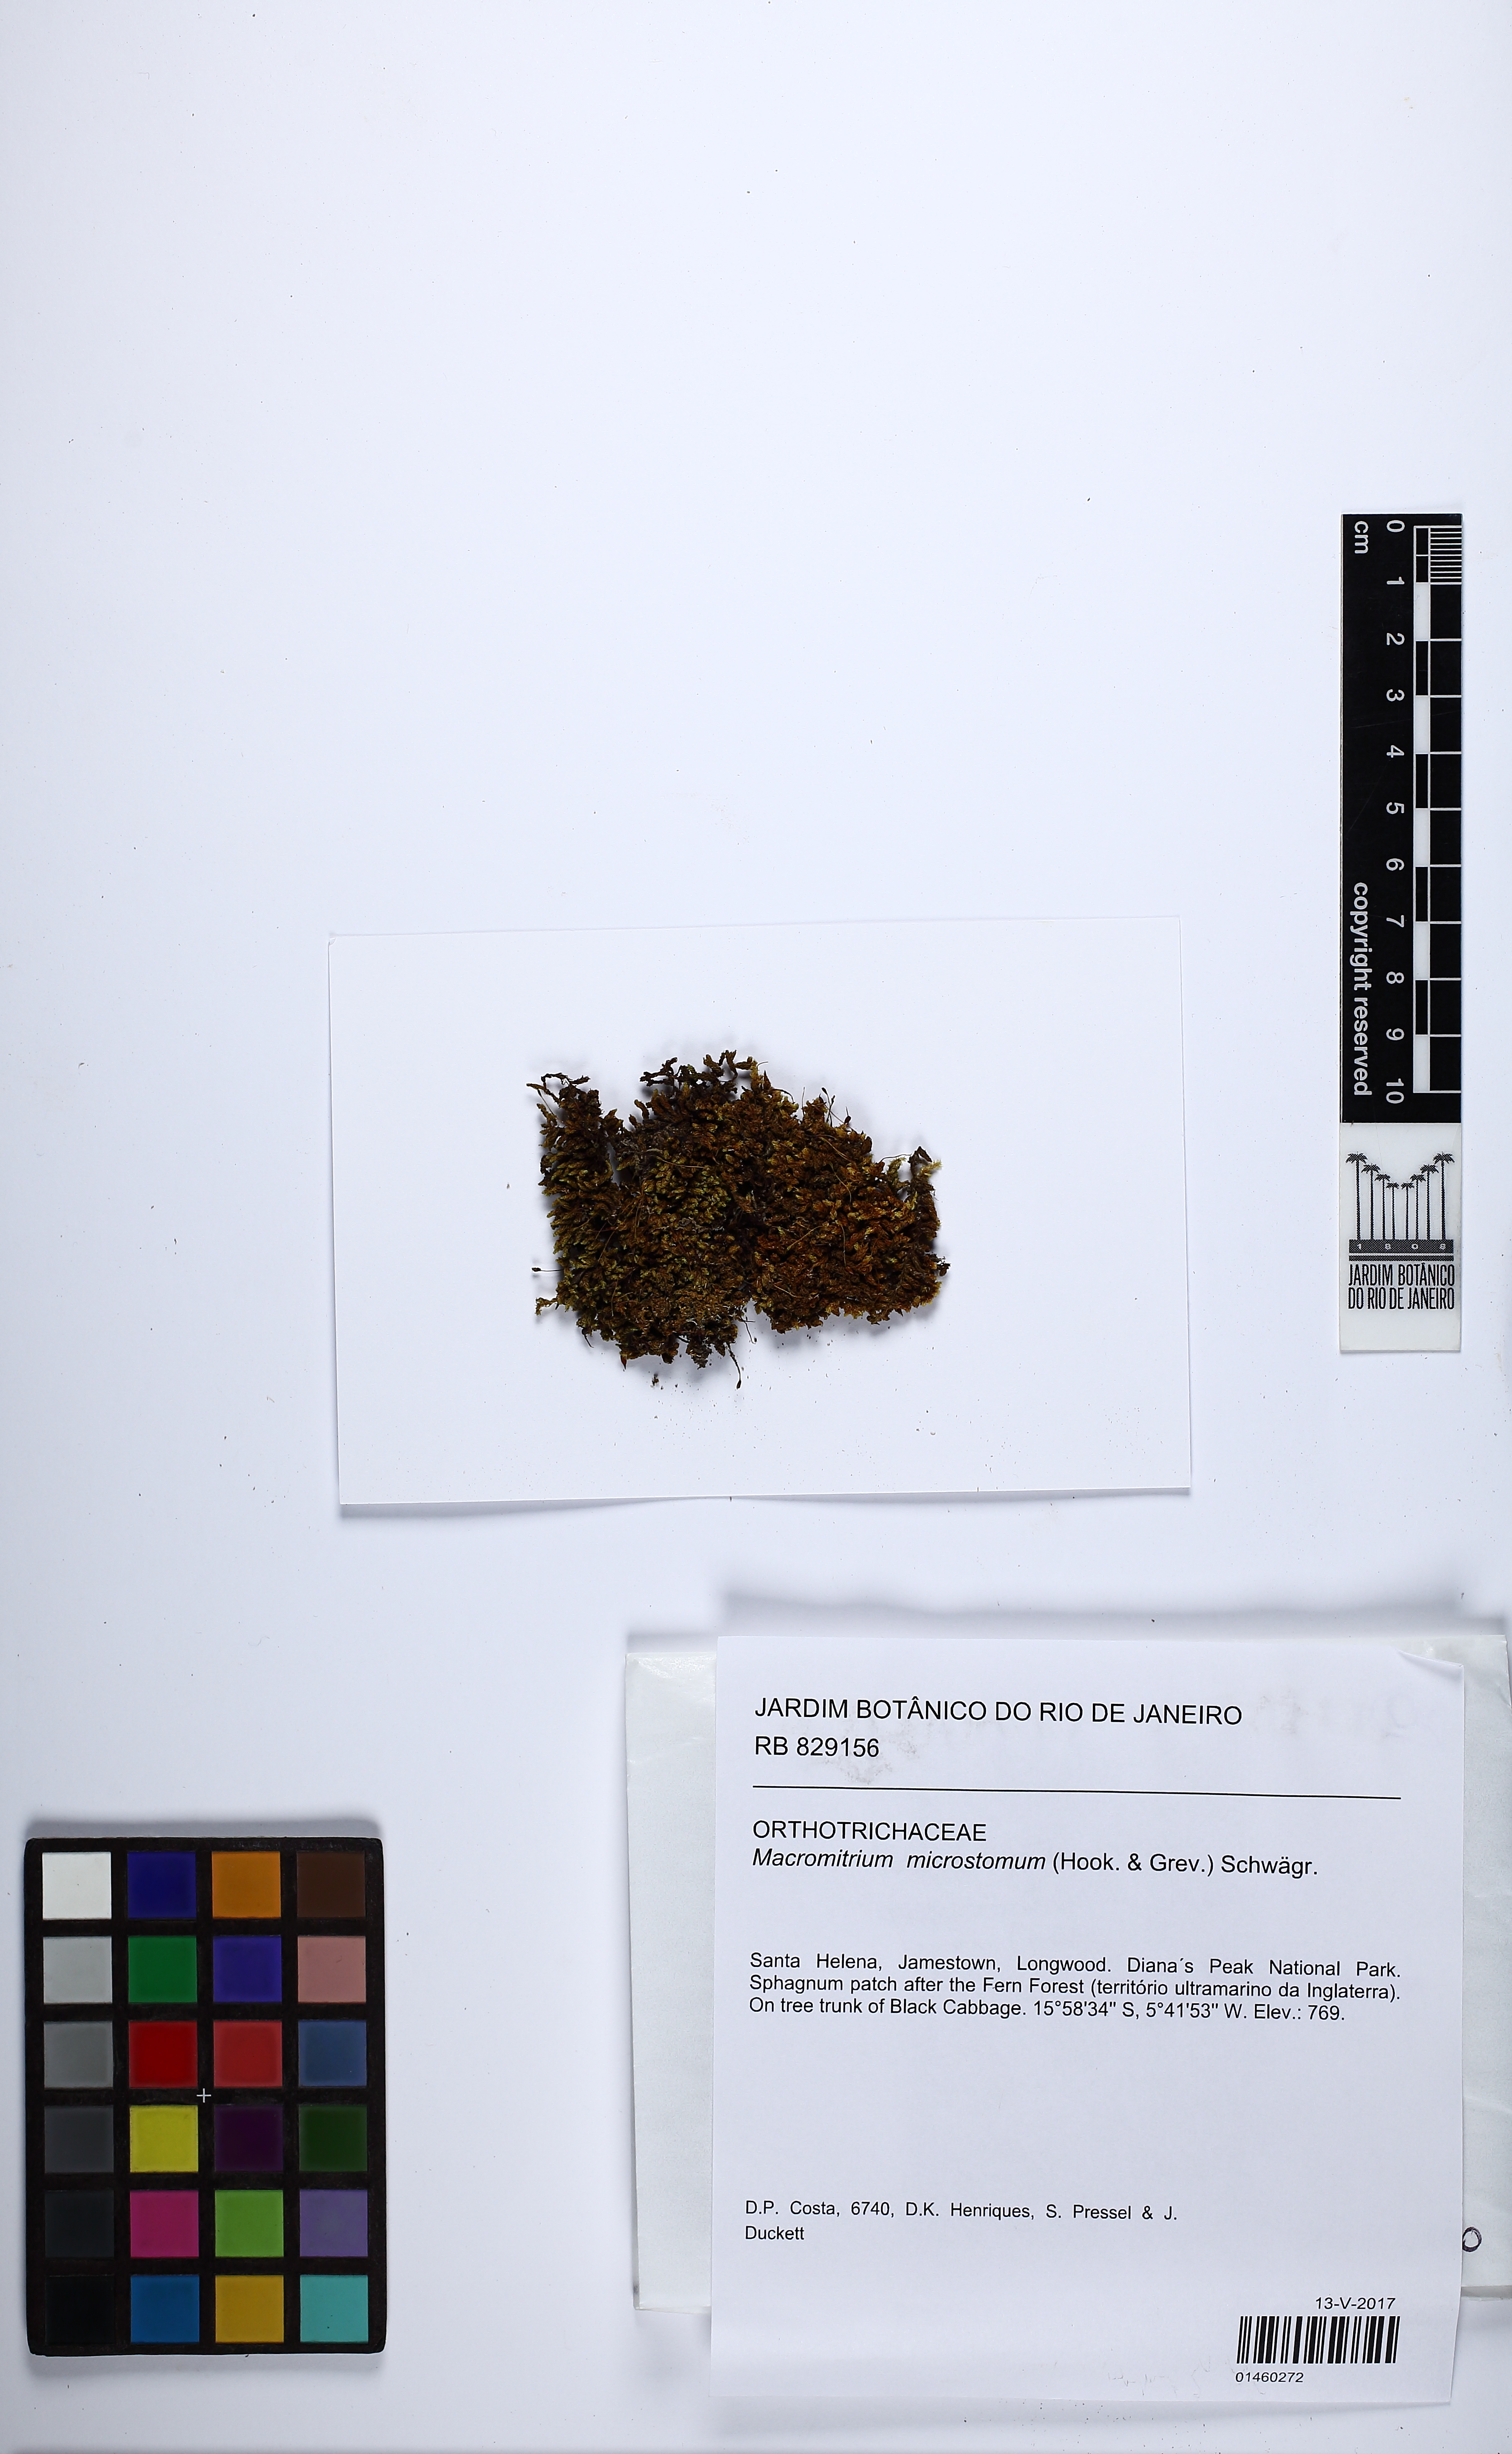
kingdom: Plantae
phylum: Bryophyta
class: Bryopsida
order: Orthotrichales
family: Orthotrichaceae
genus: Macromitrium
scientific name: Macromitrium microstomum
